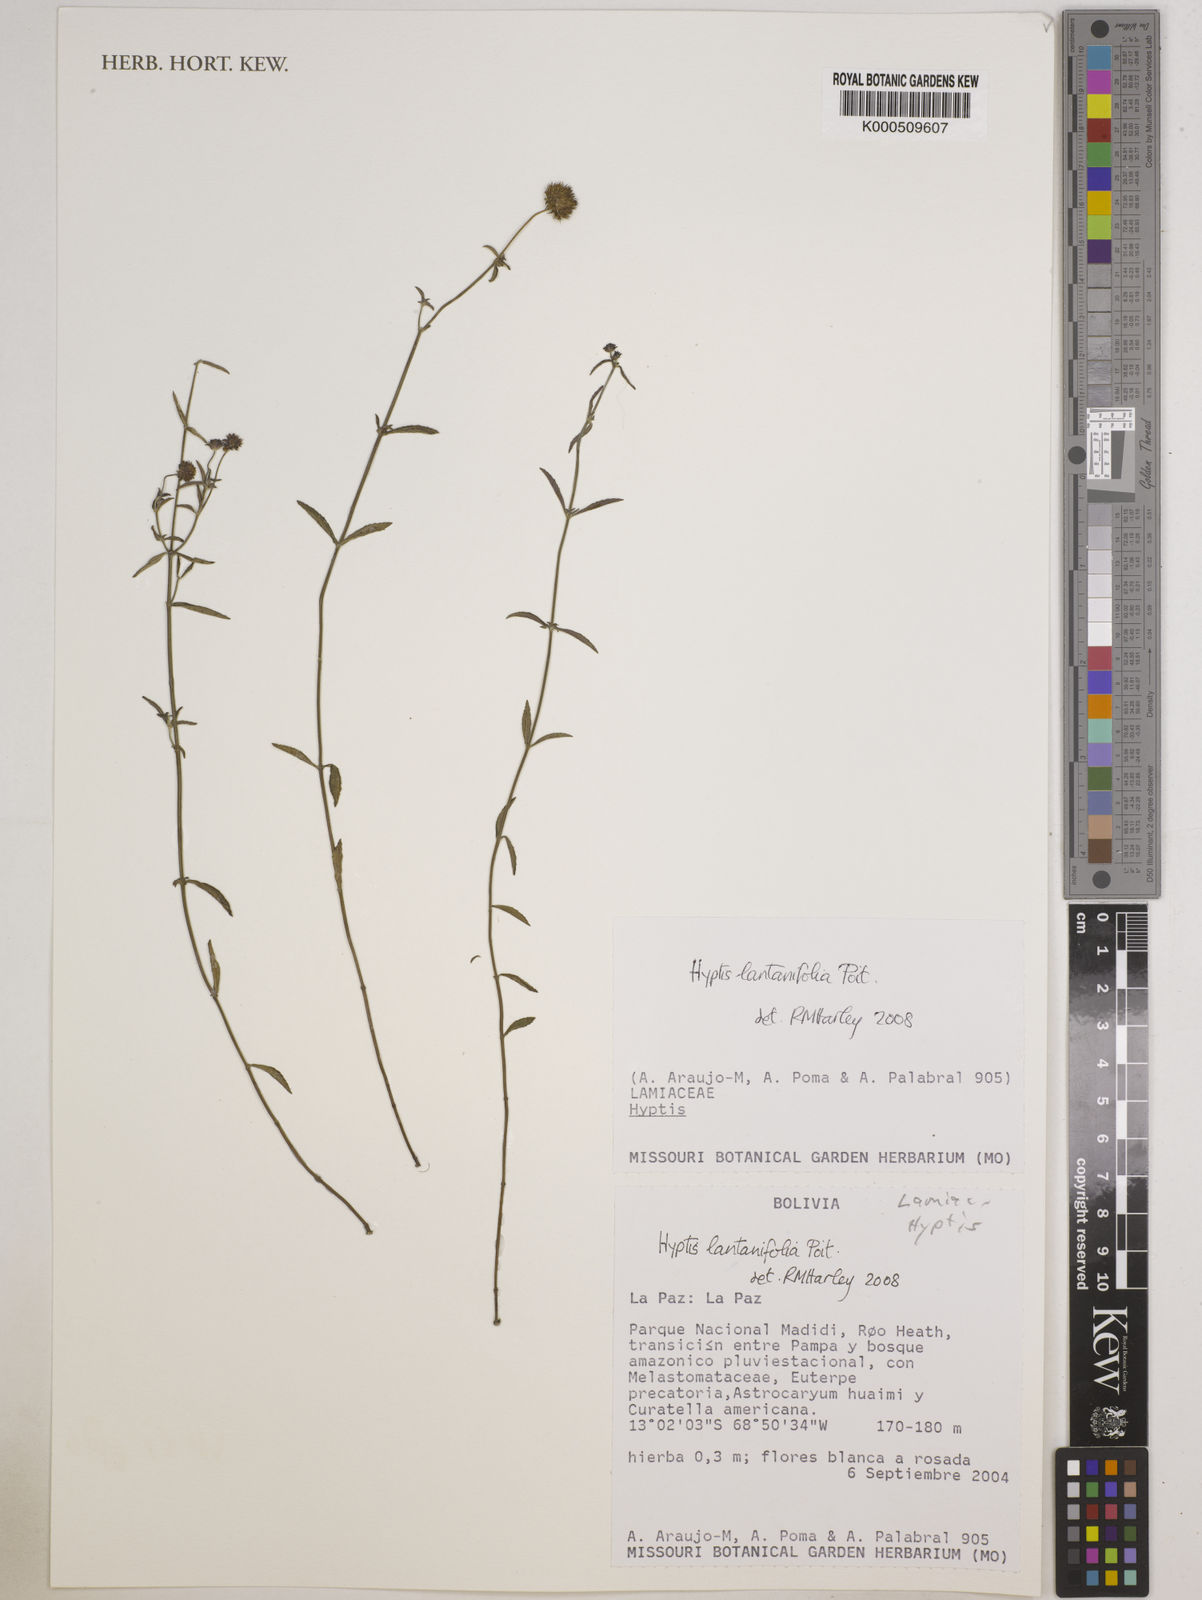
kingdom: Plantae
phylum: Tracheophyta
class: Magnoliopsida
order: Lamiales
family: Lamiaceae
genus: Hyptis
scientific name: Hyptis lantanifolia
